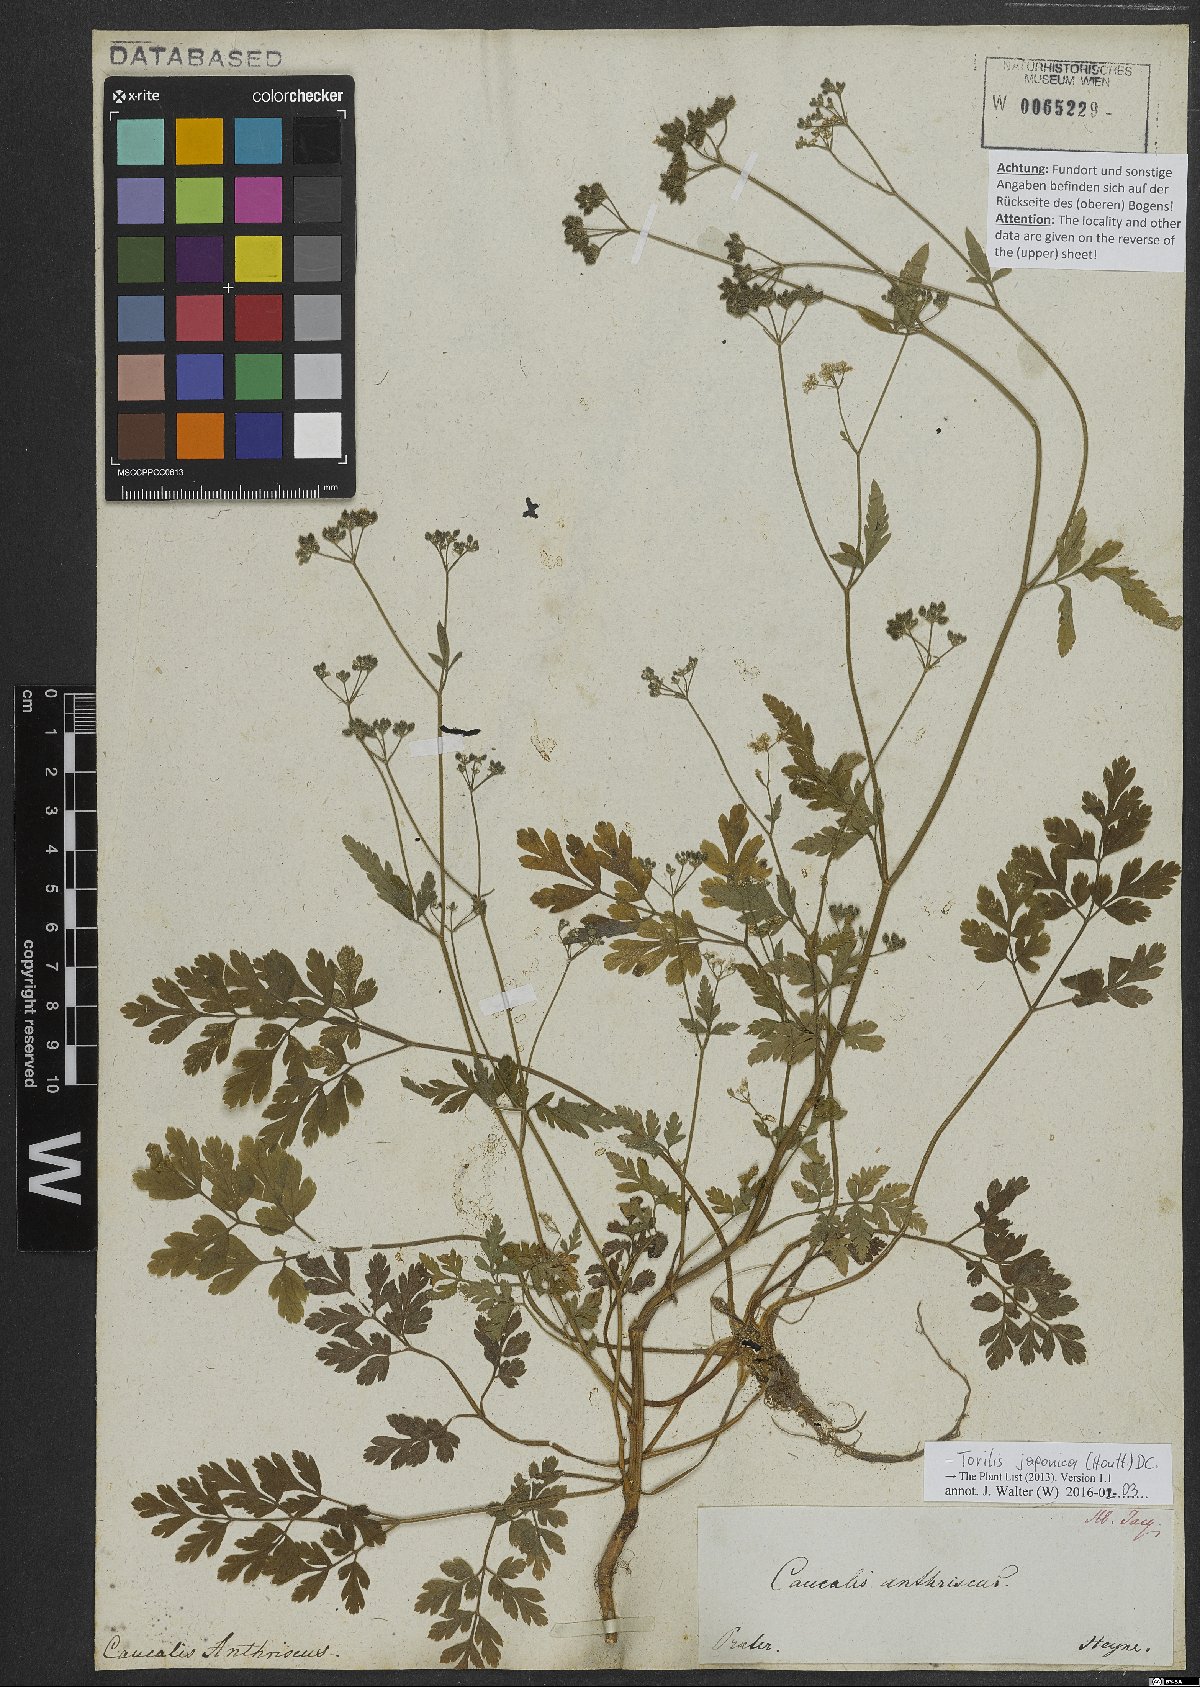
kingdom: Plantae
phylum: Tracheophyta
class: Magnoliopsida
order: Apiales
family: Apiaceae
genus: Torilis
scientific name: Torilis japonica
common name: Upright hedge-parsley
